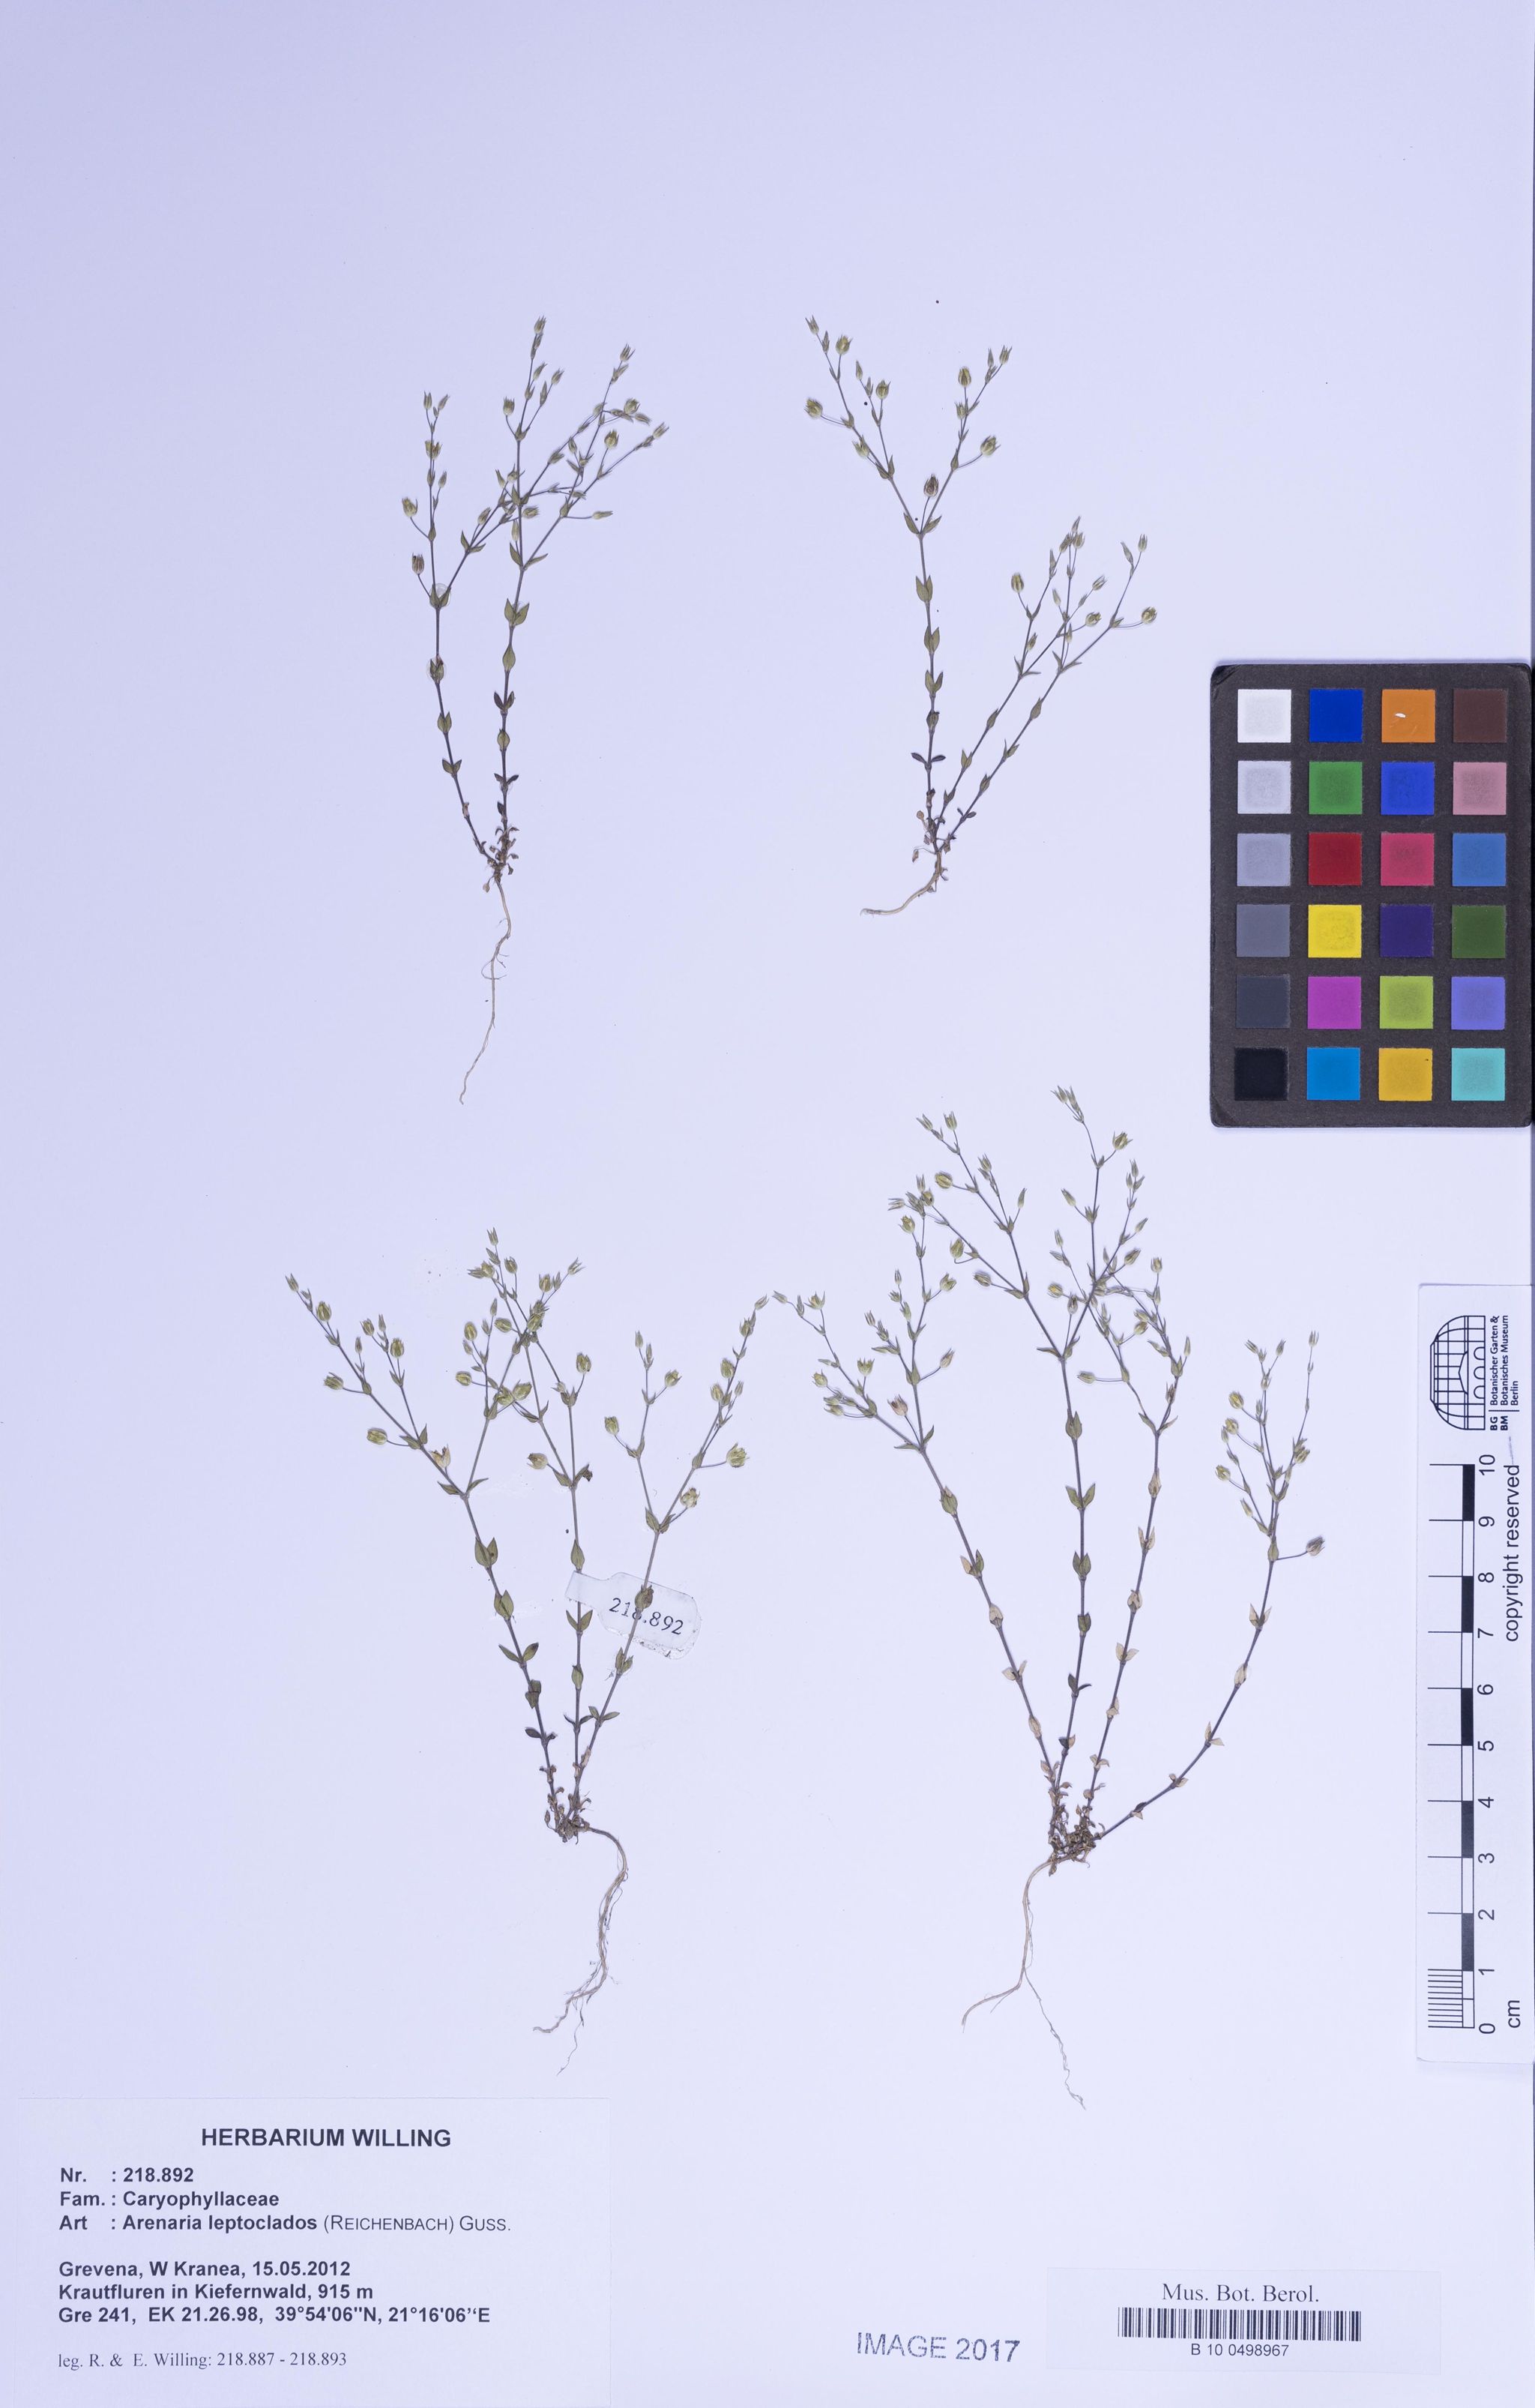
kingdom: Plantae
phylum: Tracheophyta
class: Magnoliopsida
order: Caryophyllales
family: Caryophyllaceae
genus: Arenaria
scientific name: Arenaria leptoclados
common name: Thyme-leaved sandwort
